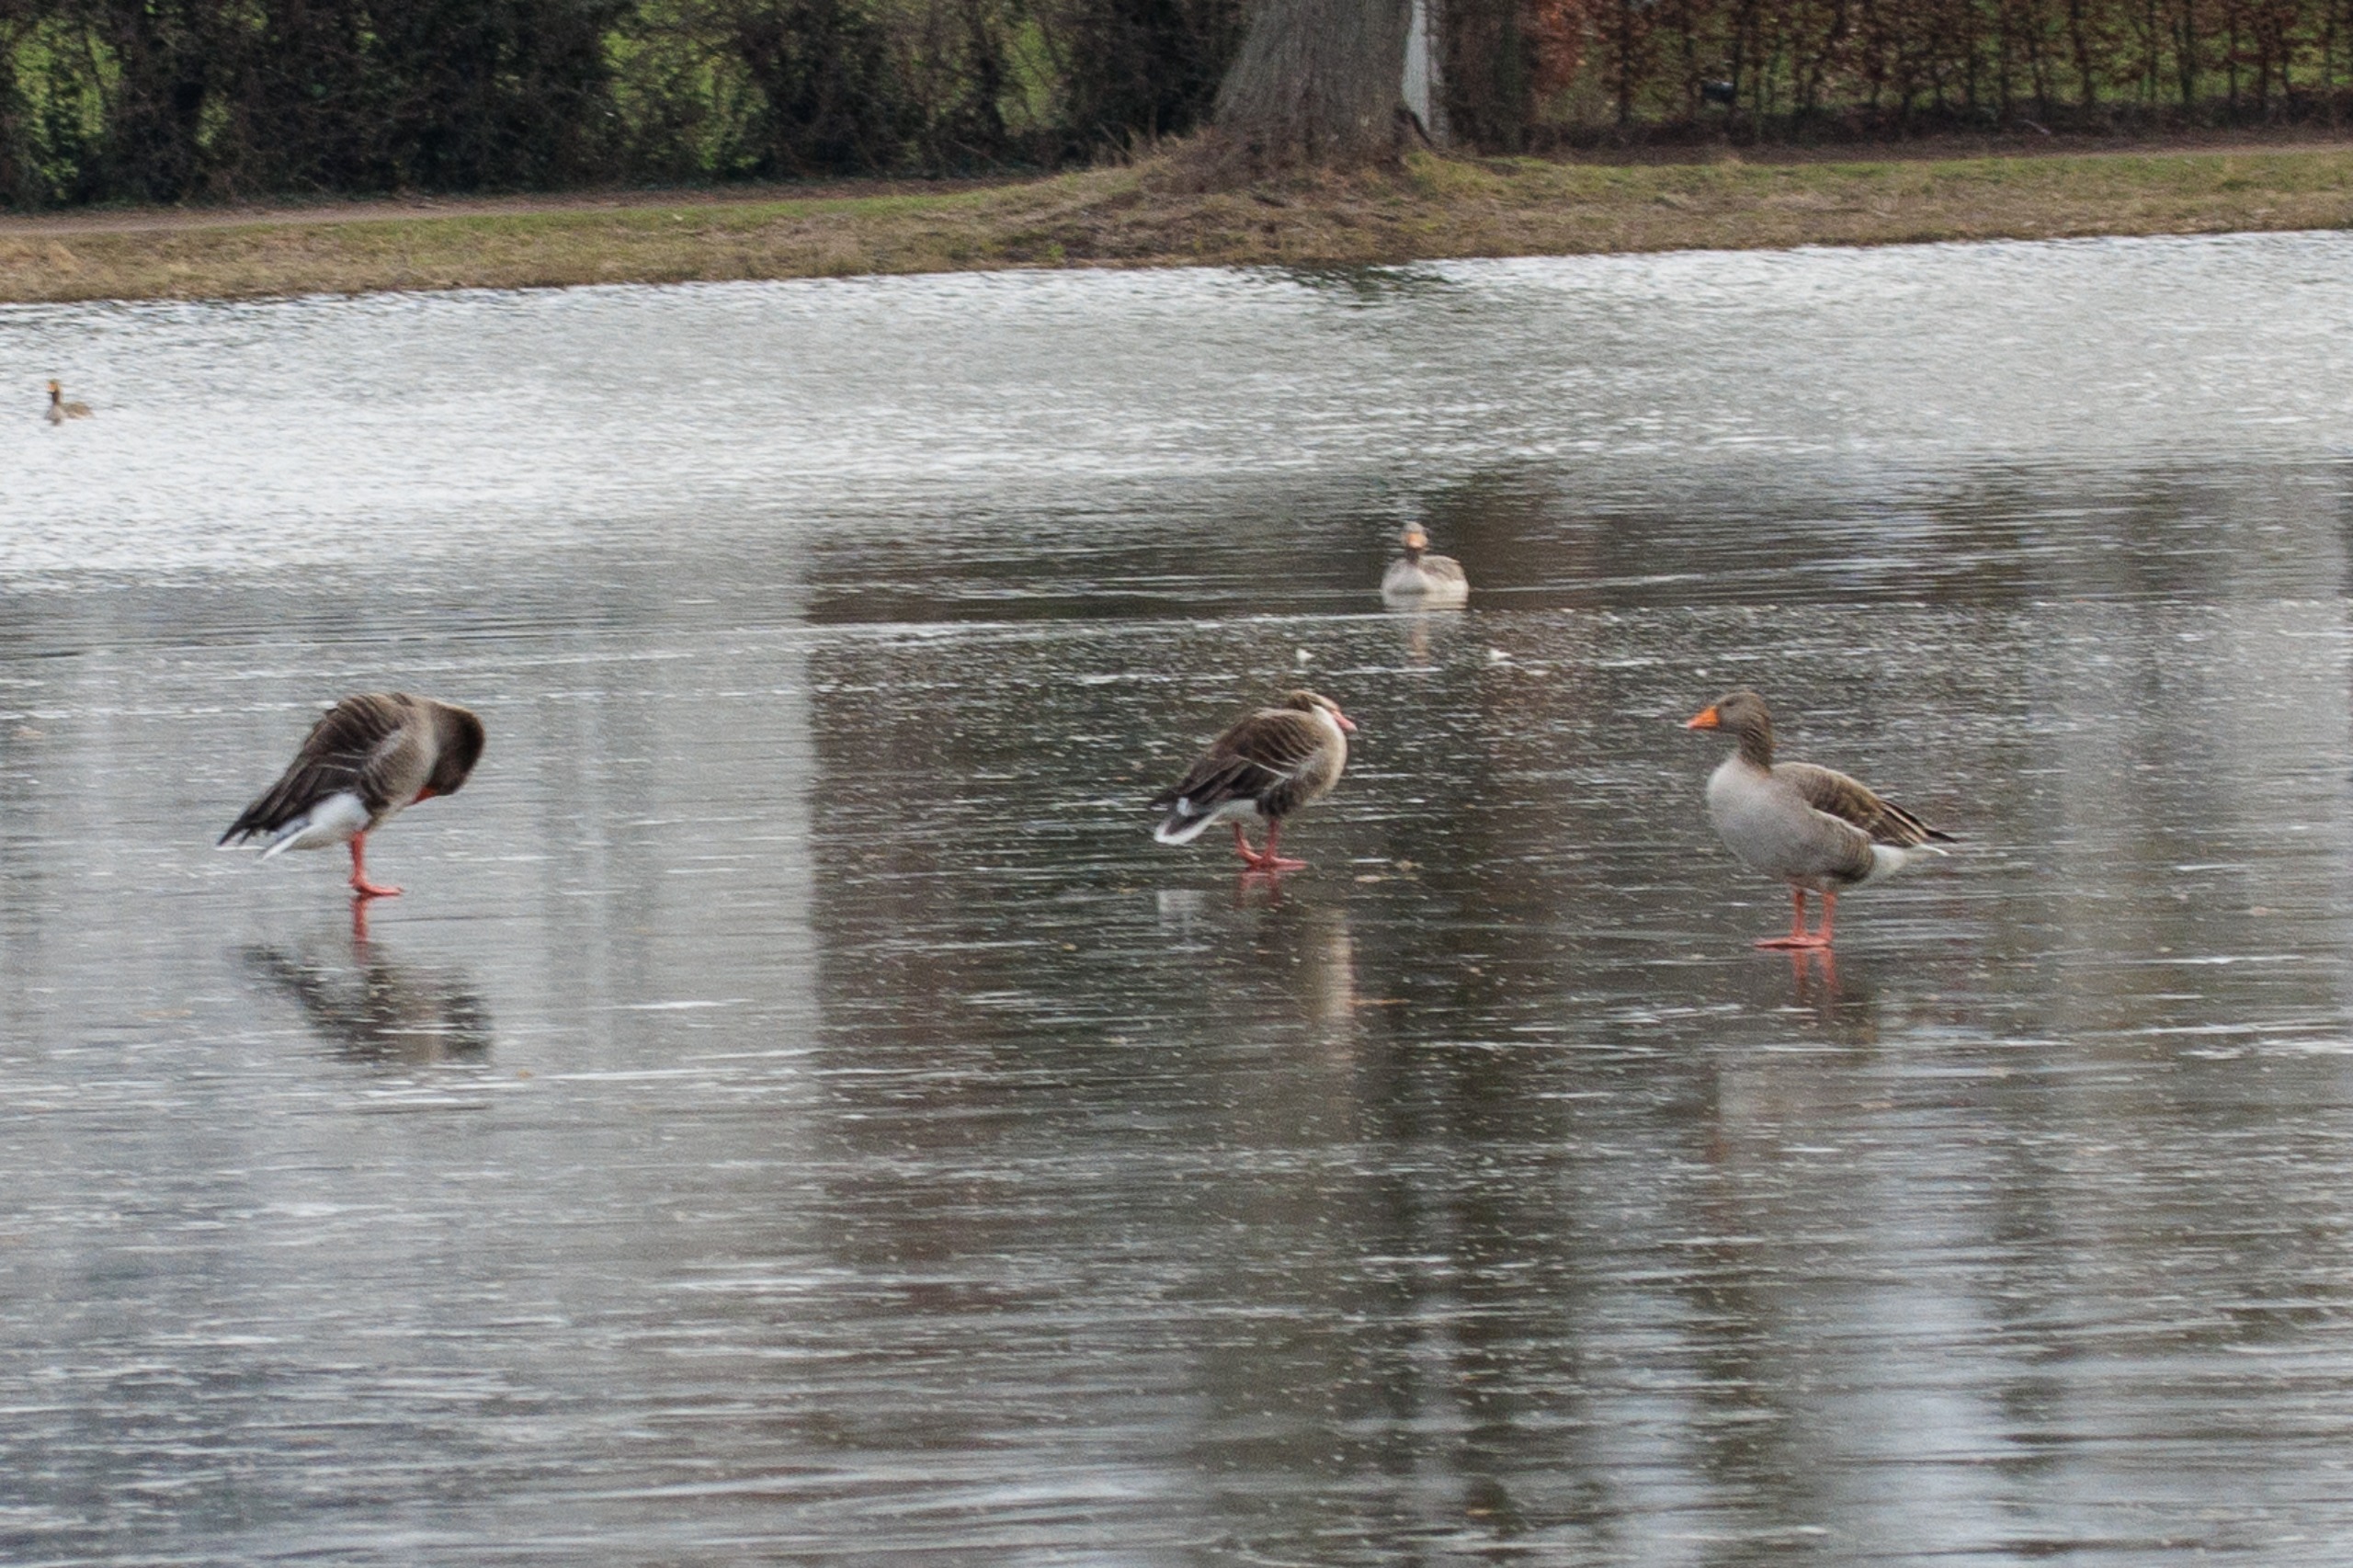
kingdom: Animalia
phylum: Chordata
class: Aves
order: Anseriformes
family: Anatidae
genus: Anser
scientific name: Anser anser
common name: Grågås
